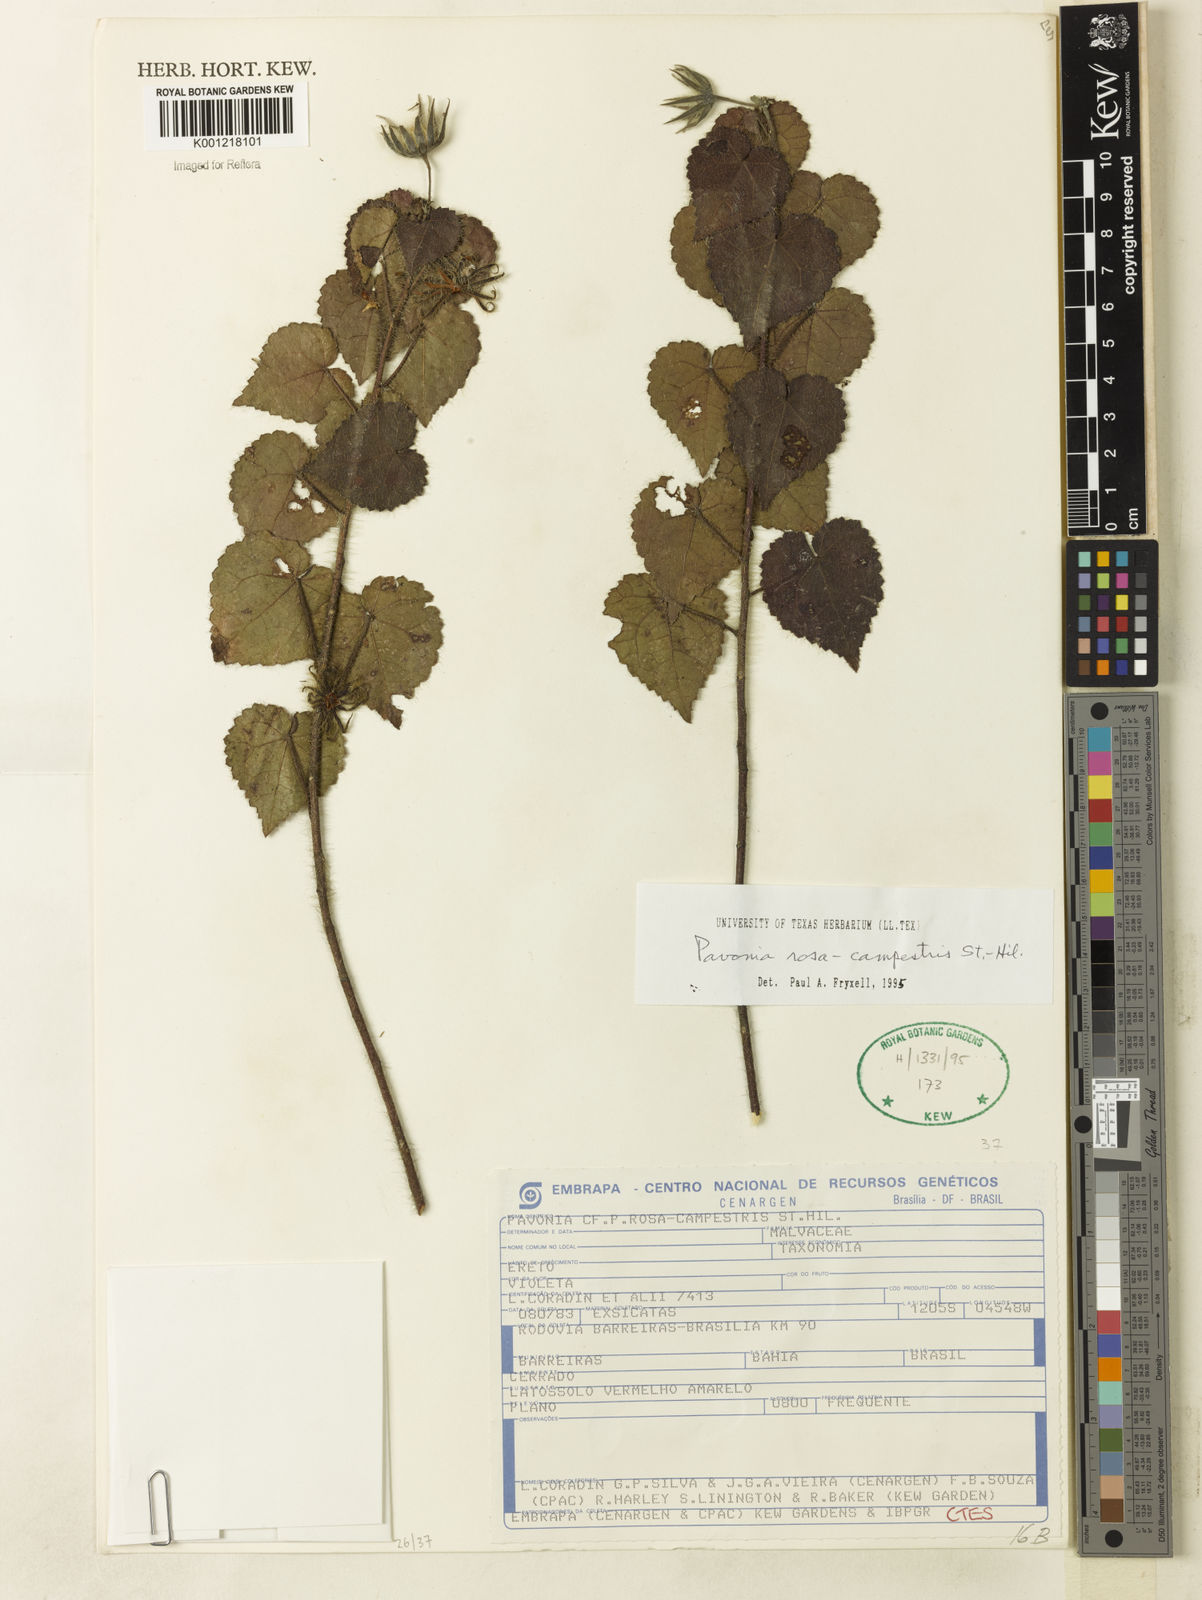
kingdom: Plantae
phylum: Tracheophyta
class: Magnoliopsida
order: Malvales
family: Malvaceae
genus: Pavonia
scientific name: Pavonia rosa-campestris
